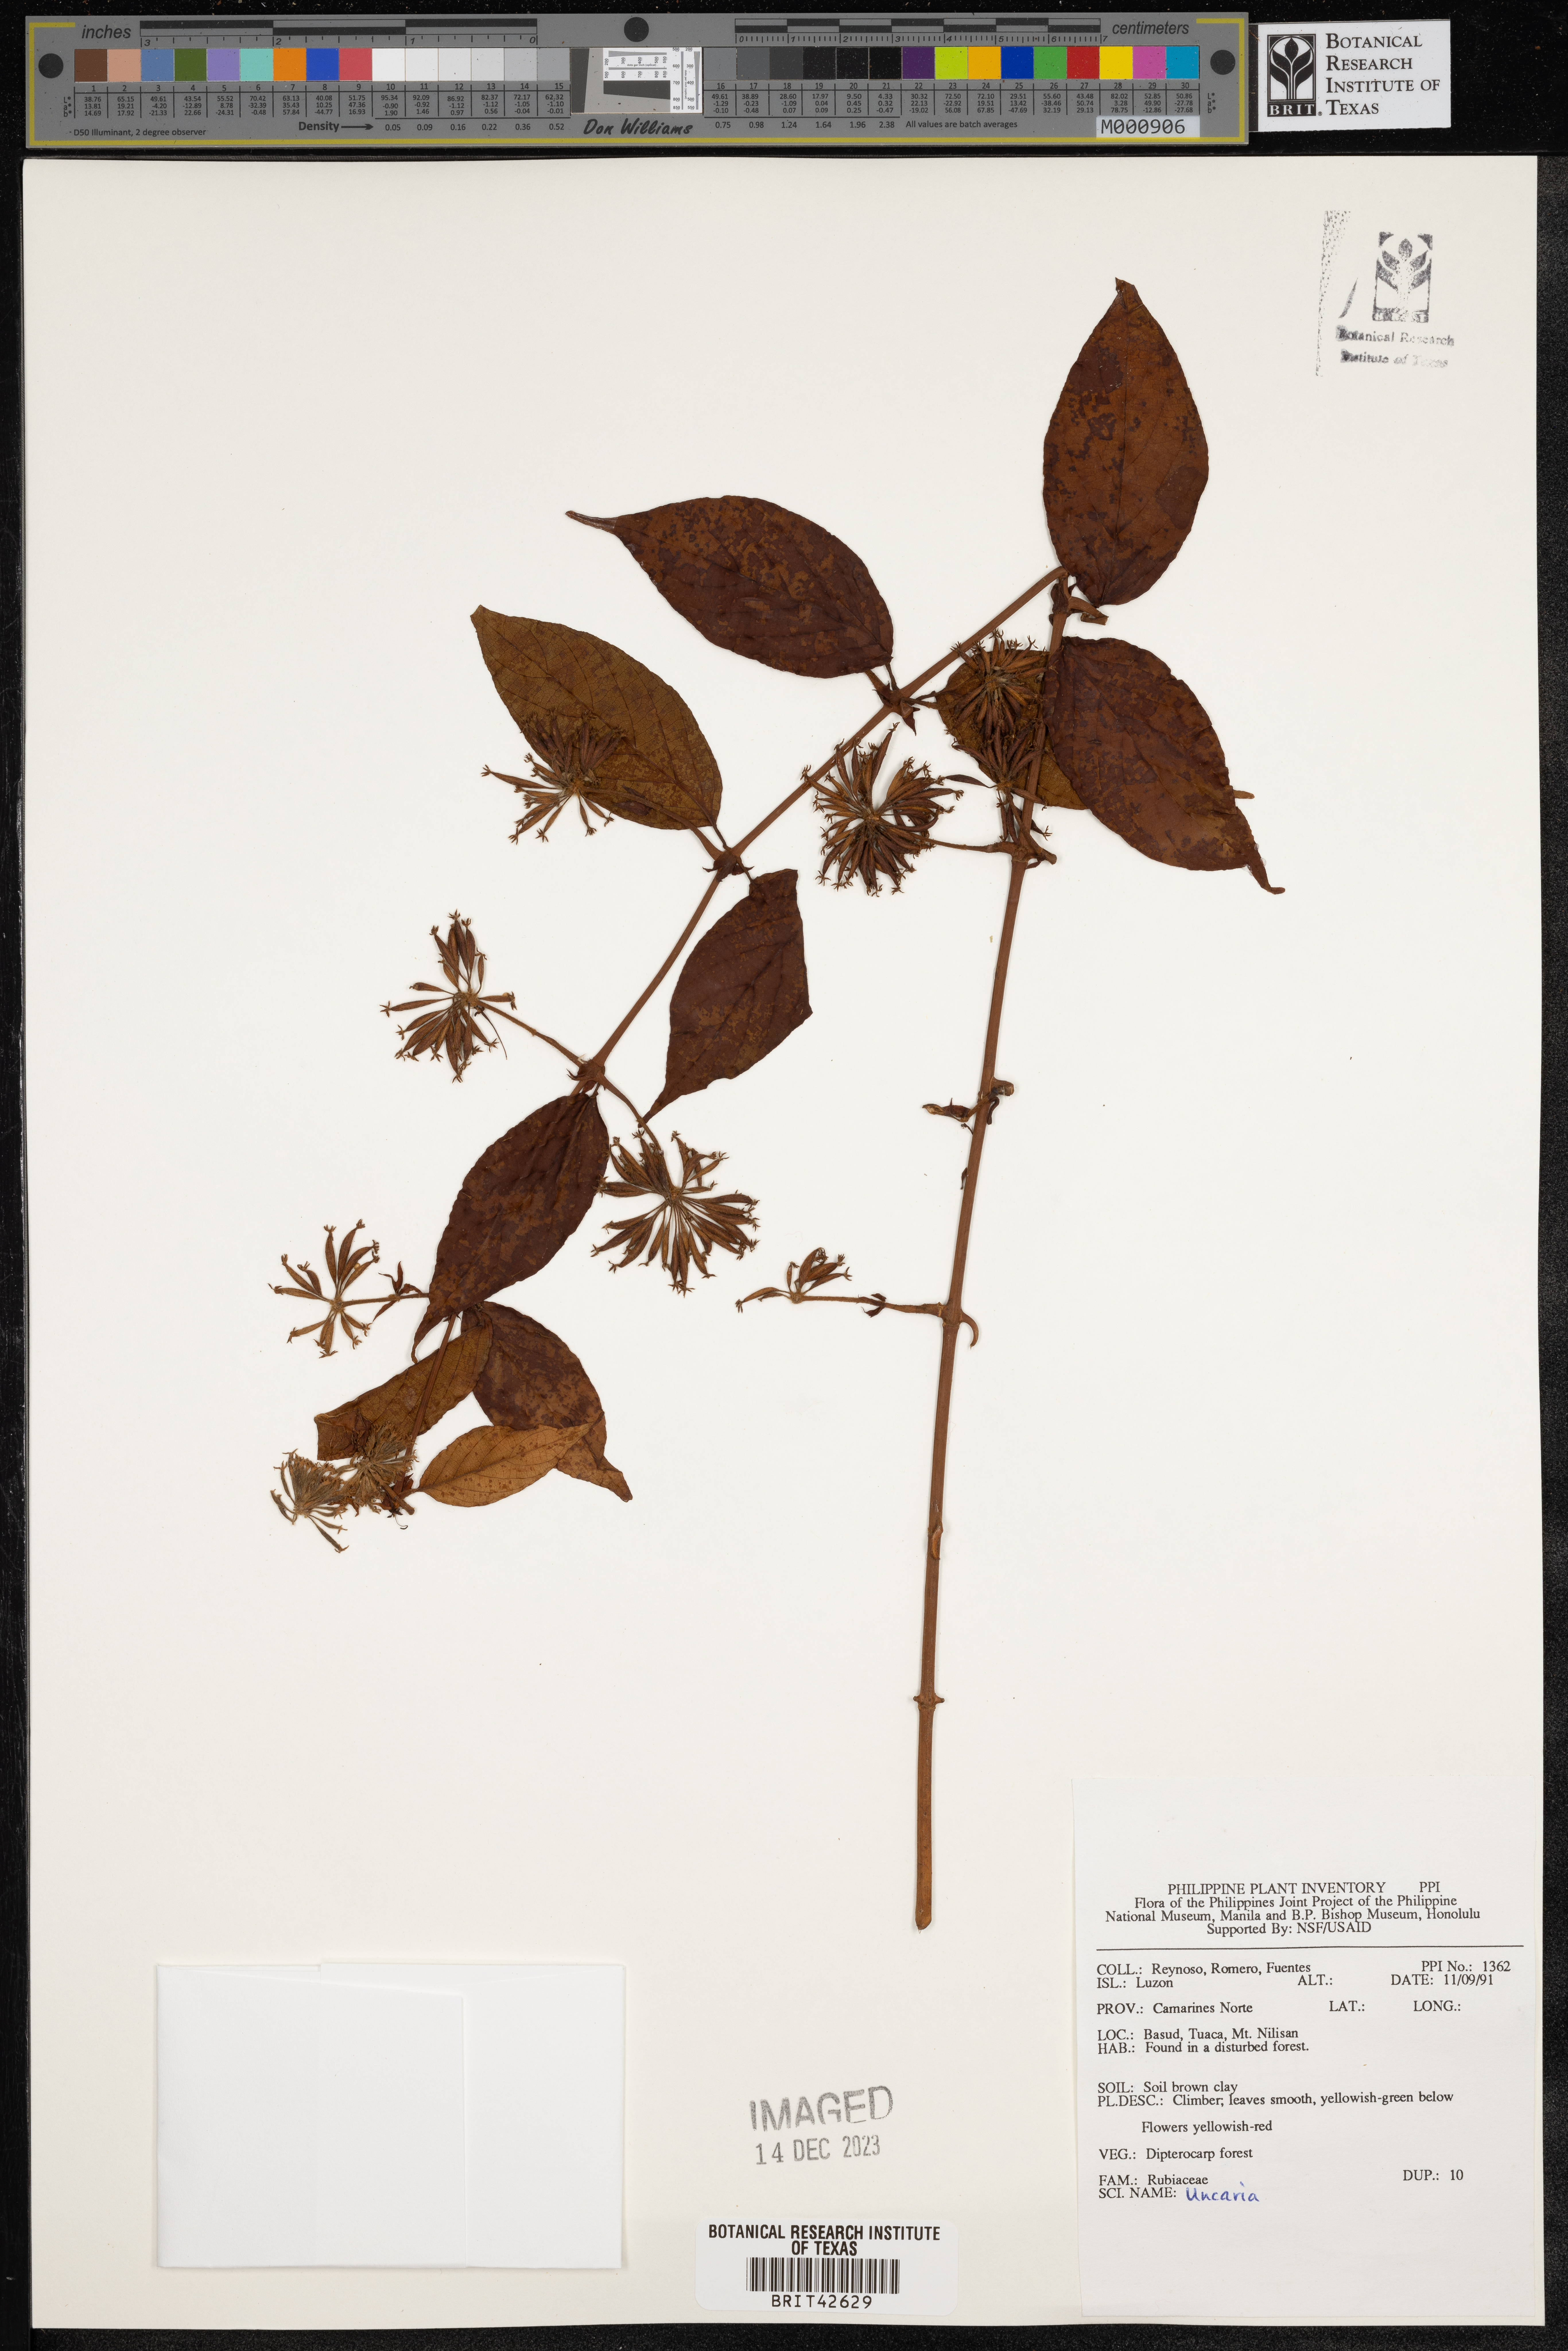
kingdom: Plantae
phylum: Tracheophyta
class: Magnoliopsida
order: Gentianales
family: Rubiaceae
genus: Uncaria
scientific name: Uncaria
